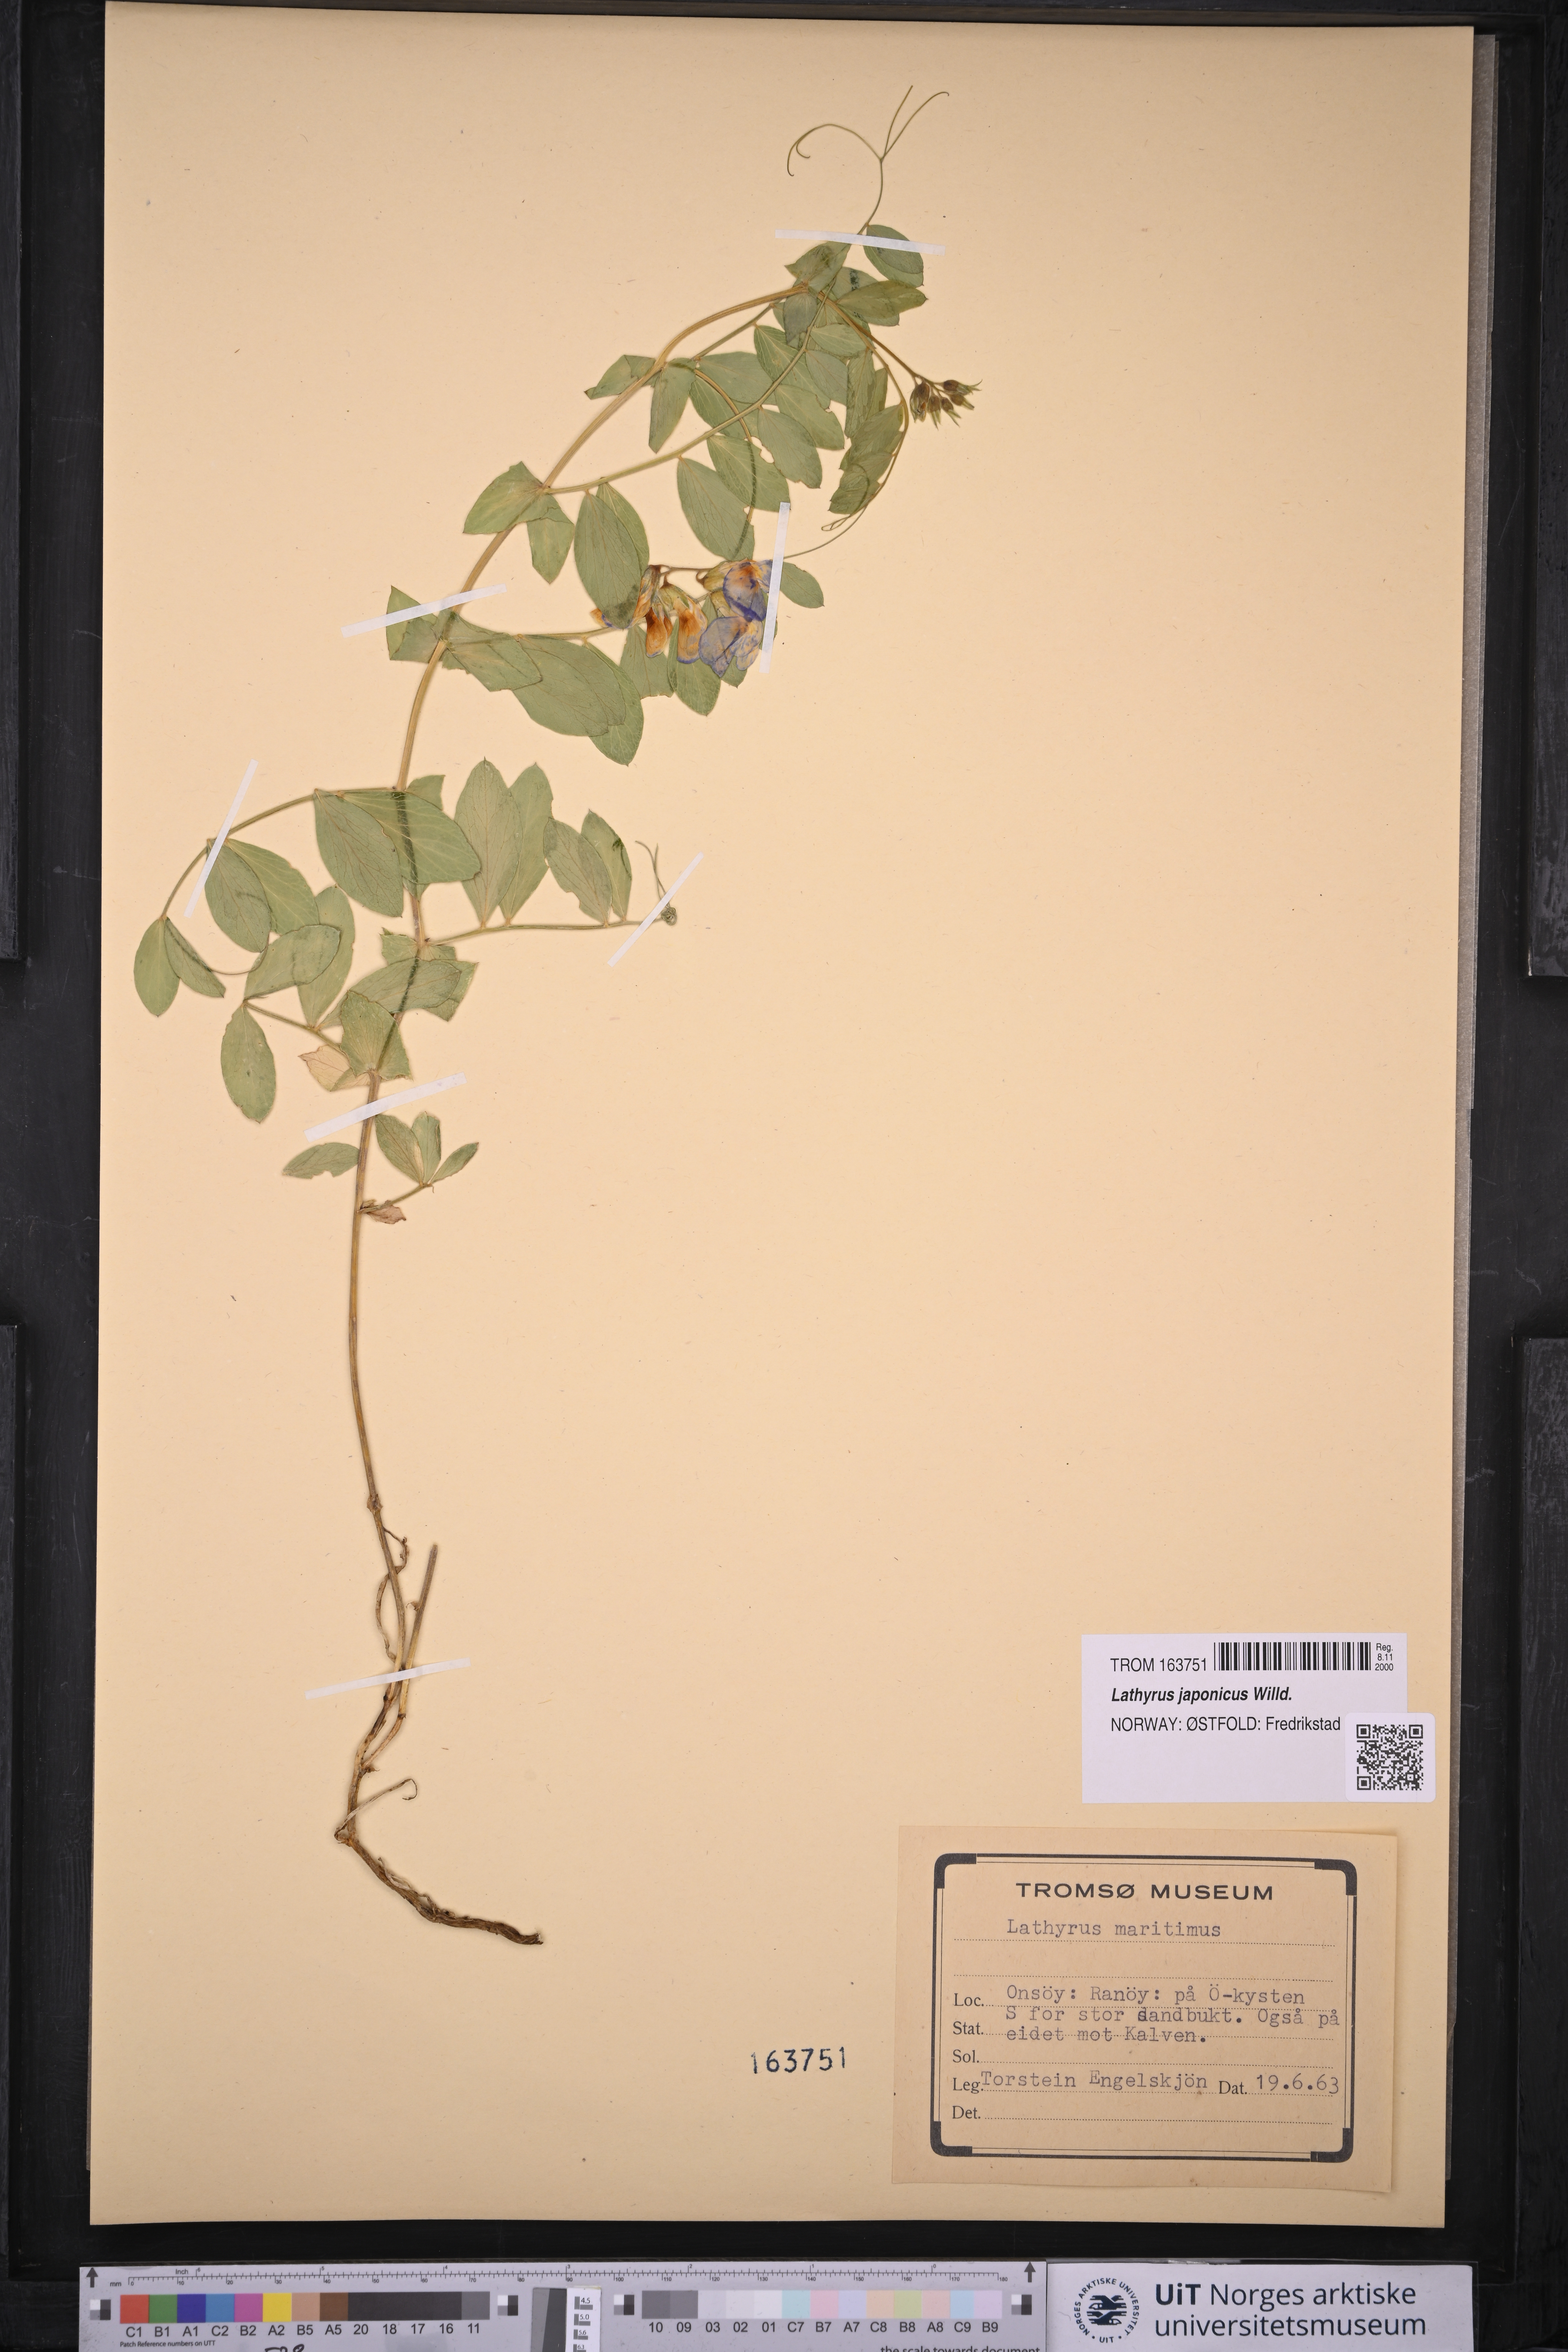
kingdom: Plantae
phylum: Tracheophyta
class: Magnoliopsida
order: Fabales
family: Fabaceae
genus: Lathyrus
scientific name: Lathyrus japonicus
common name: Sea pea
